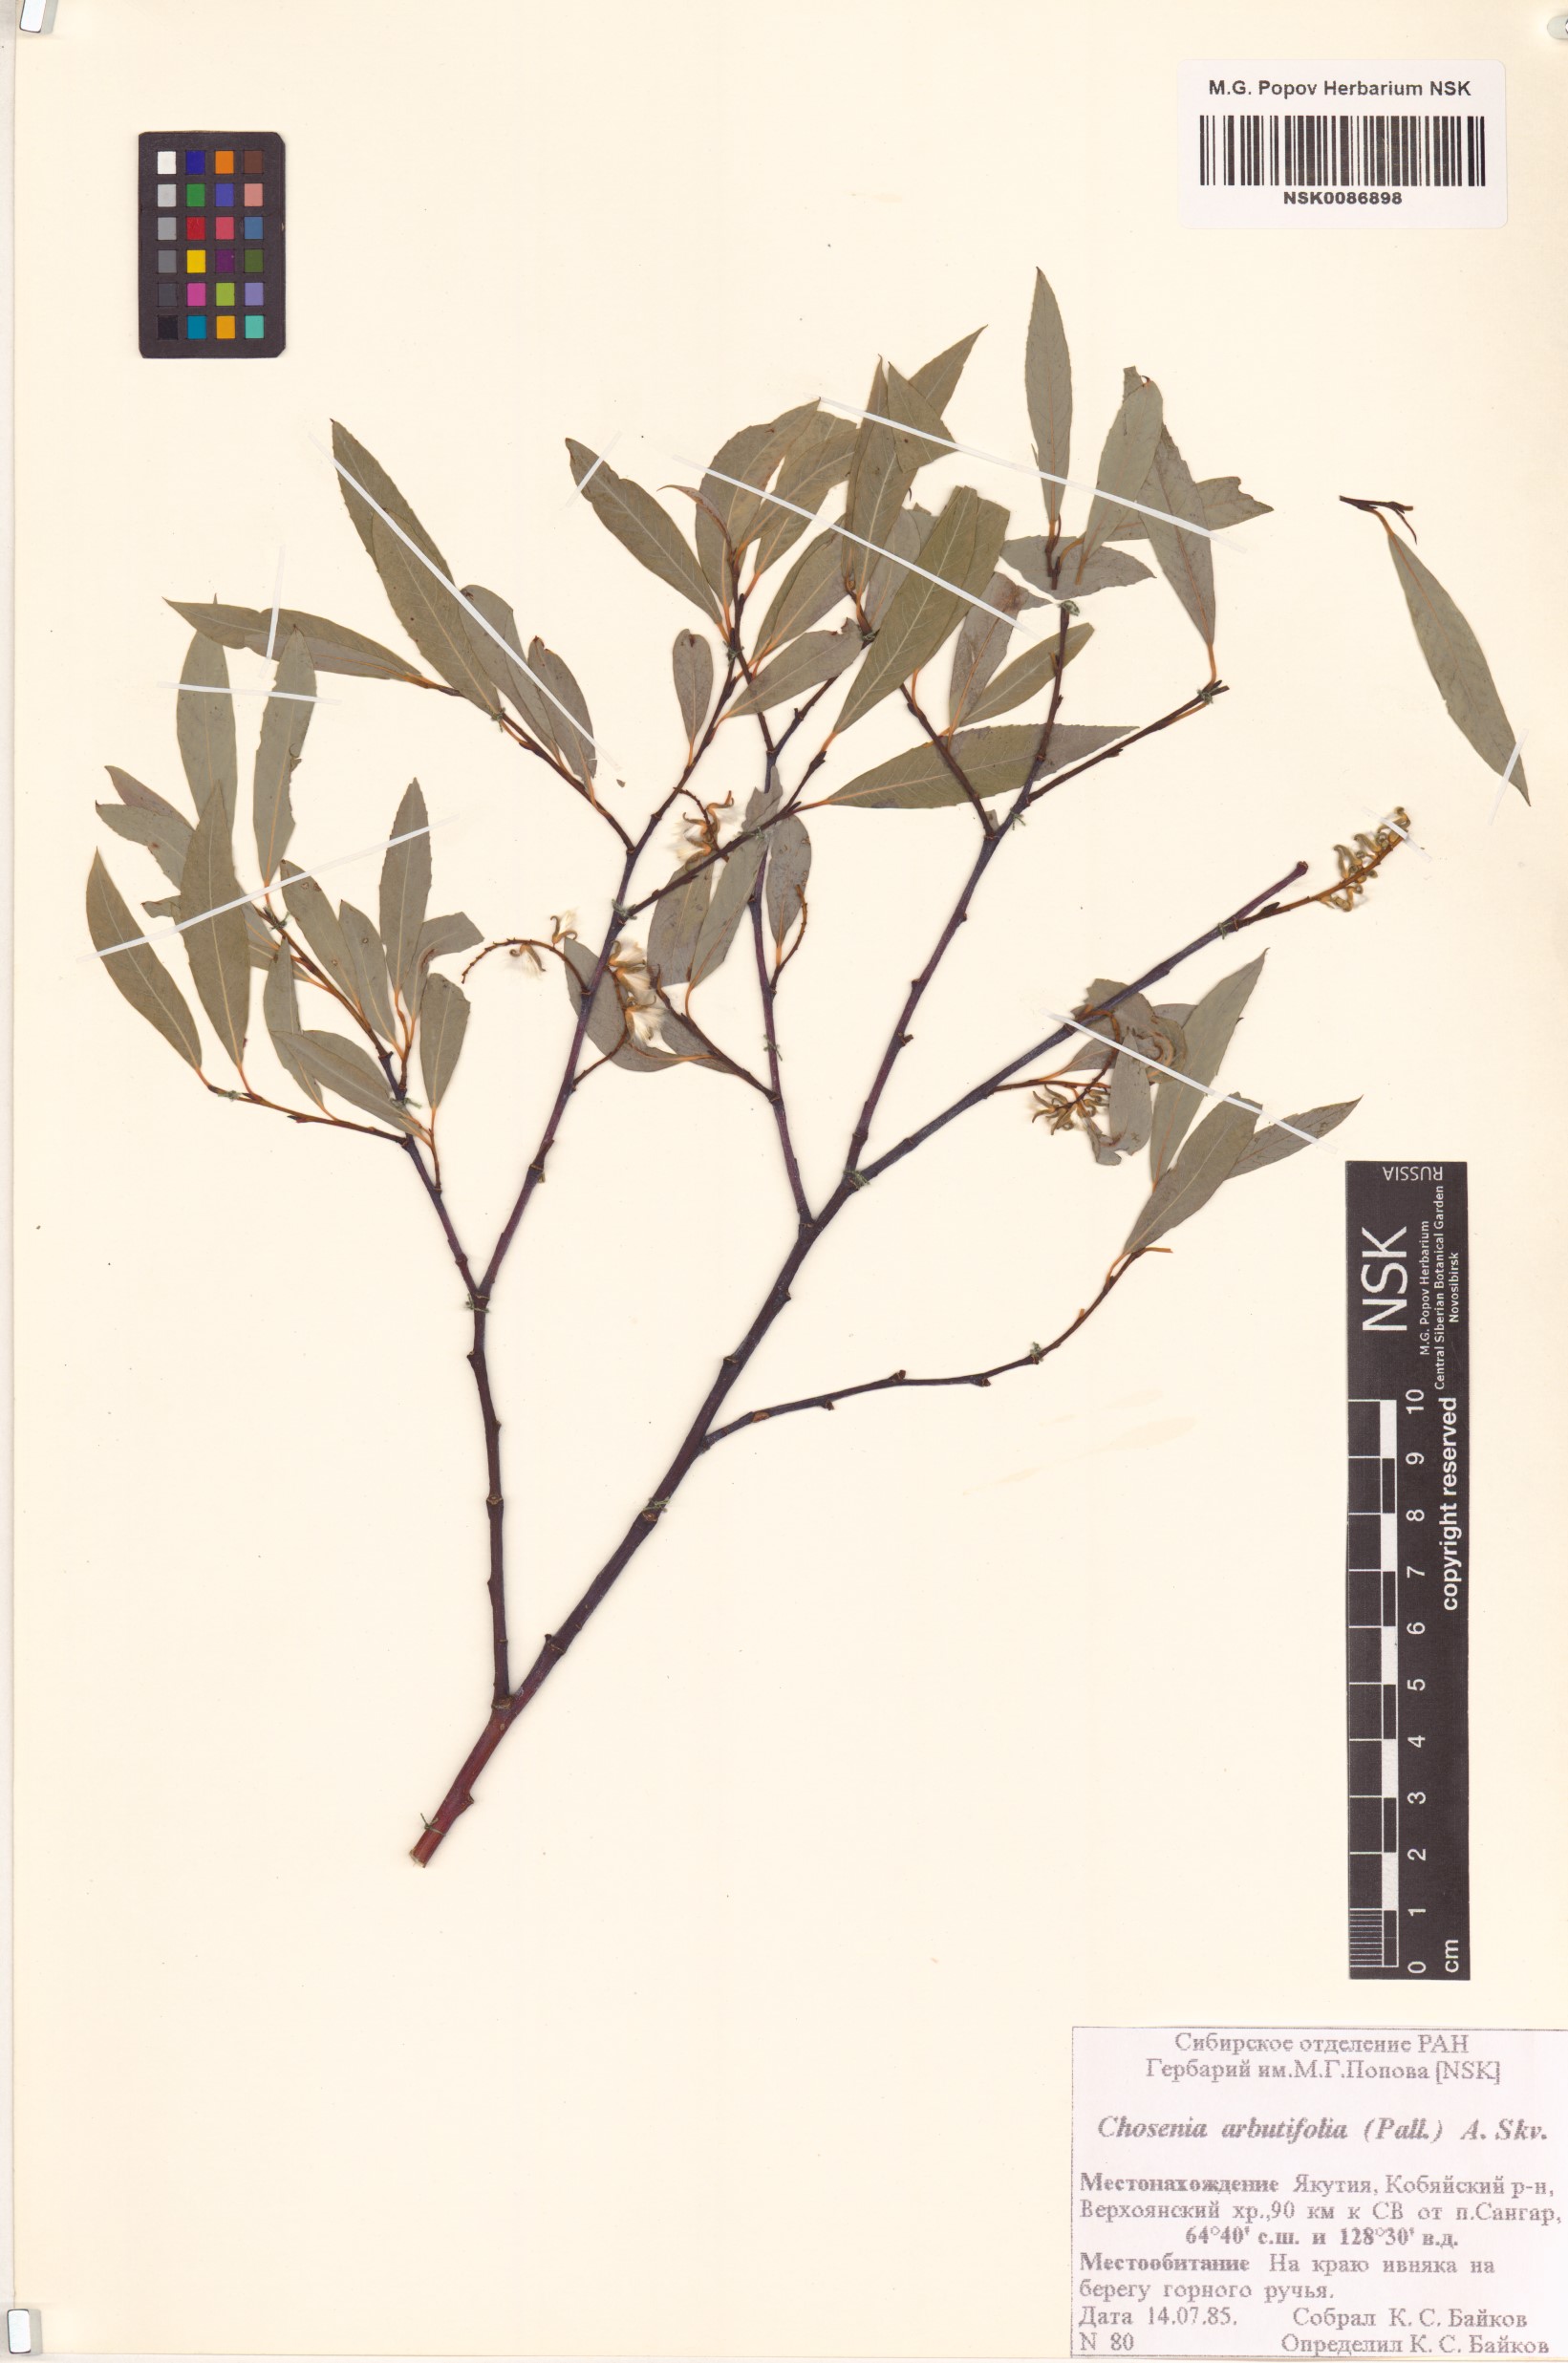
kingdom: Plantae
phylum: Tracheophyta
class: Magnoliopsida
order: Malpighiales
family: Salicaceae
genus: Chosenia
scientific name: Chosenia arbutifolia
